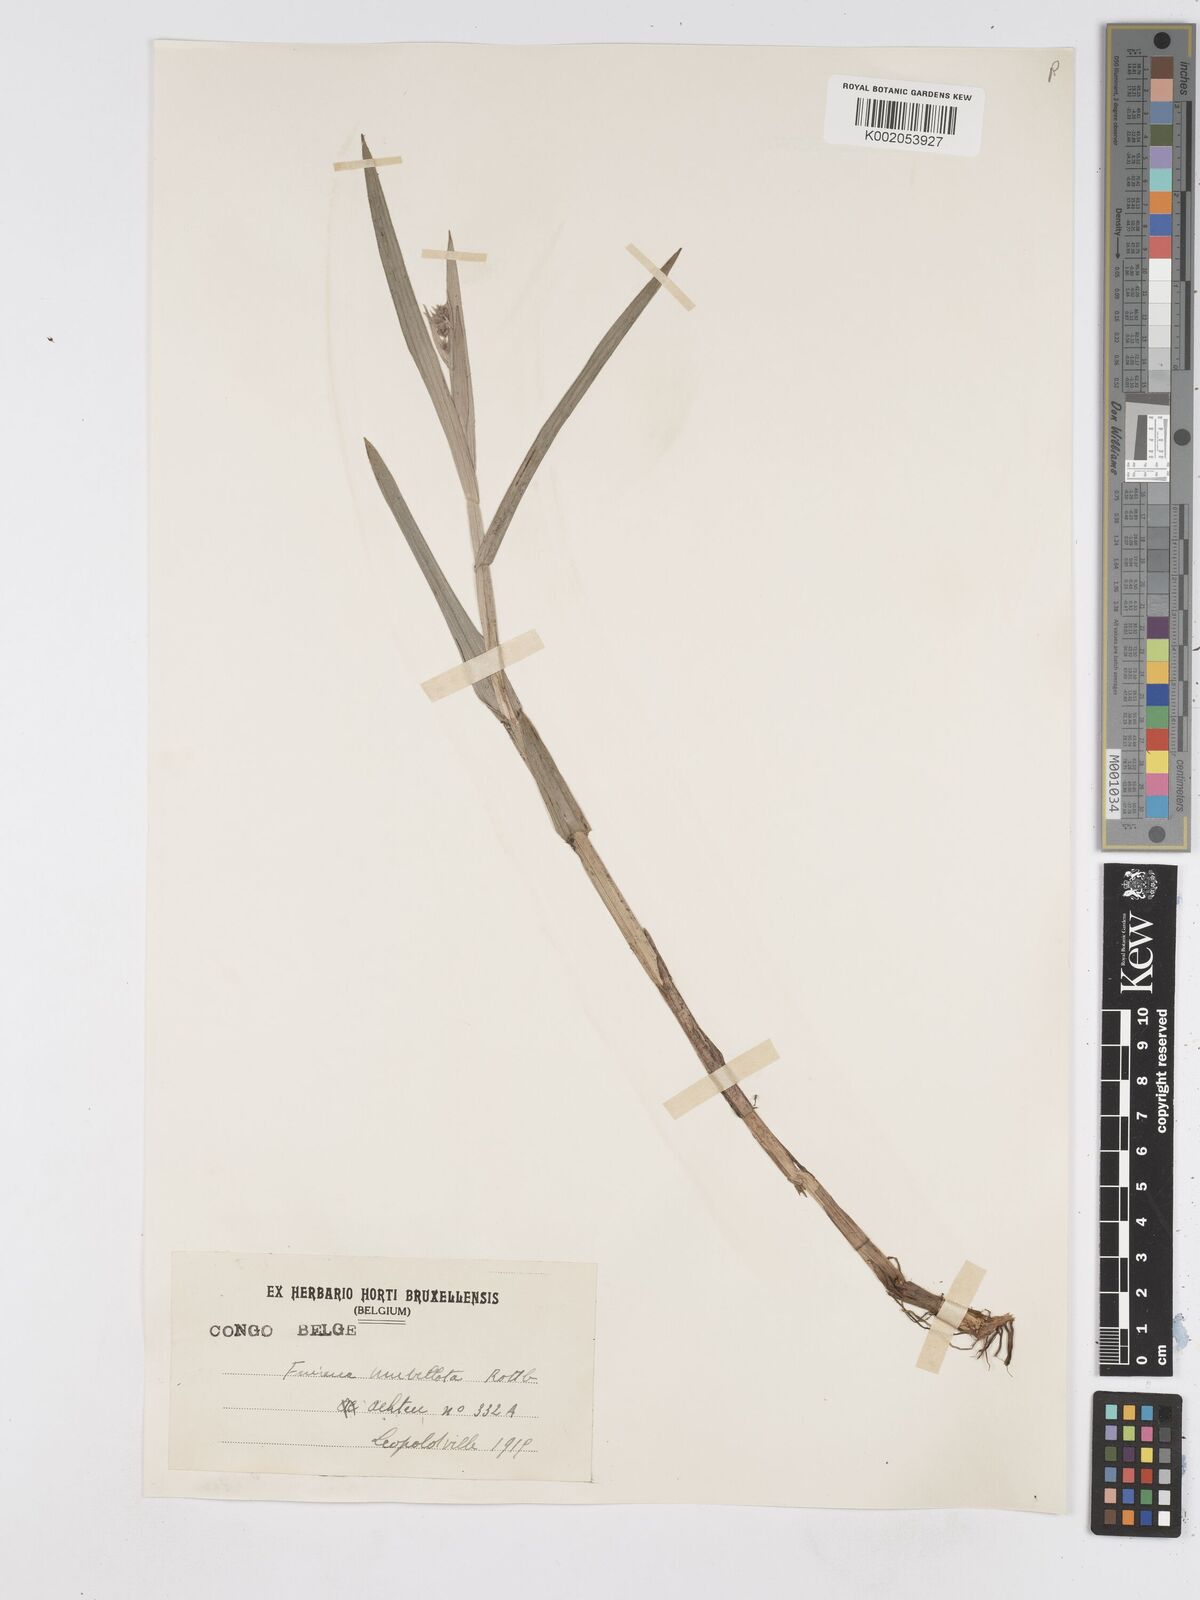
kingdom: Plantae
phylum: Tracheophyta
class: Liliopsida
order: Poales
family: Cyperaceae
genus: Fuirena
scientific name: Fuirena umbellata
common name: Yefen
